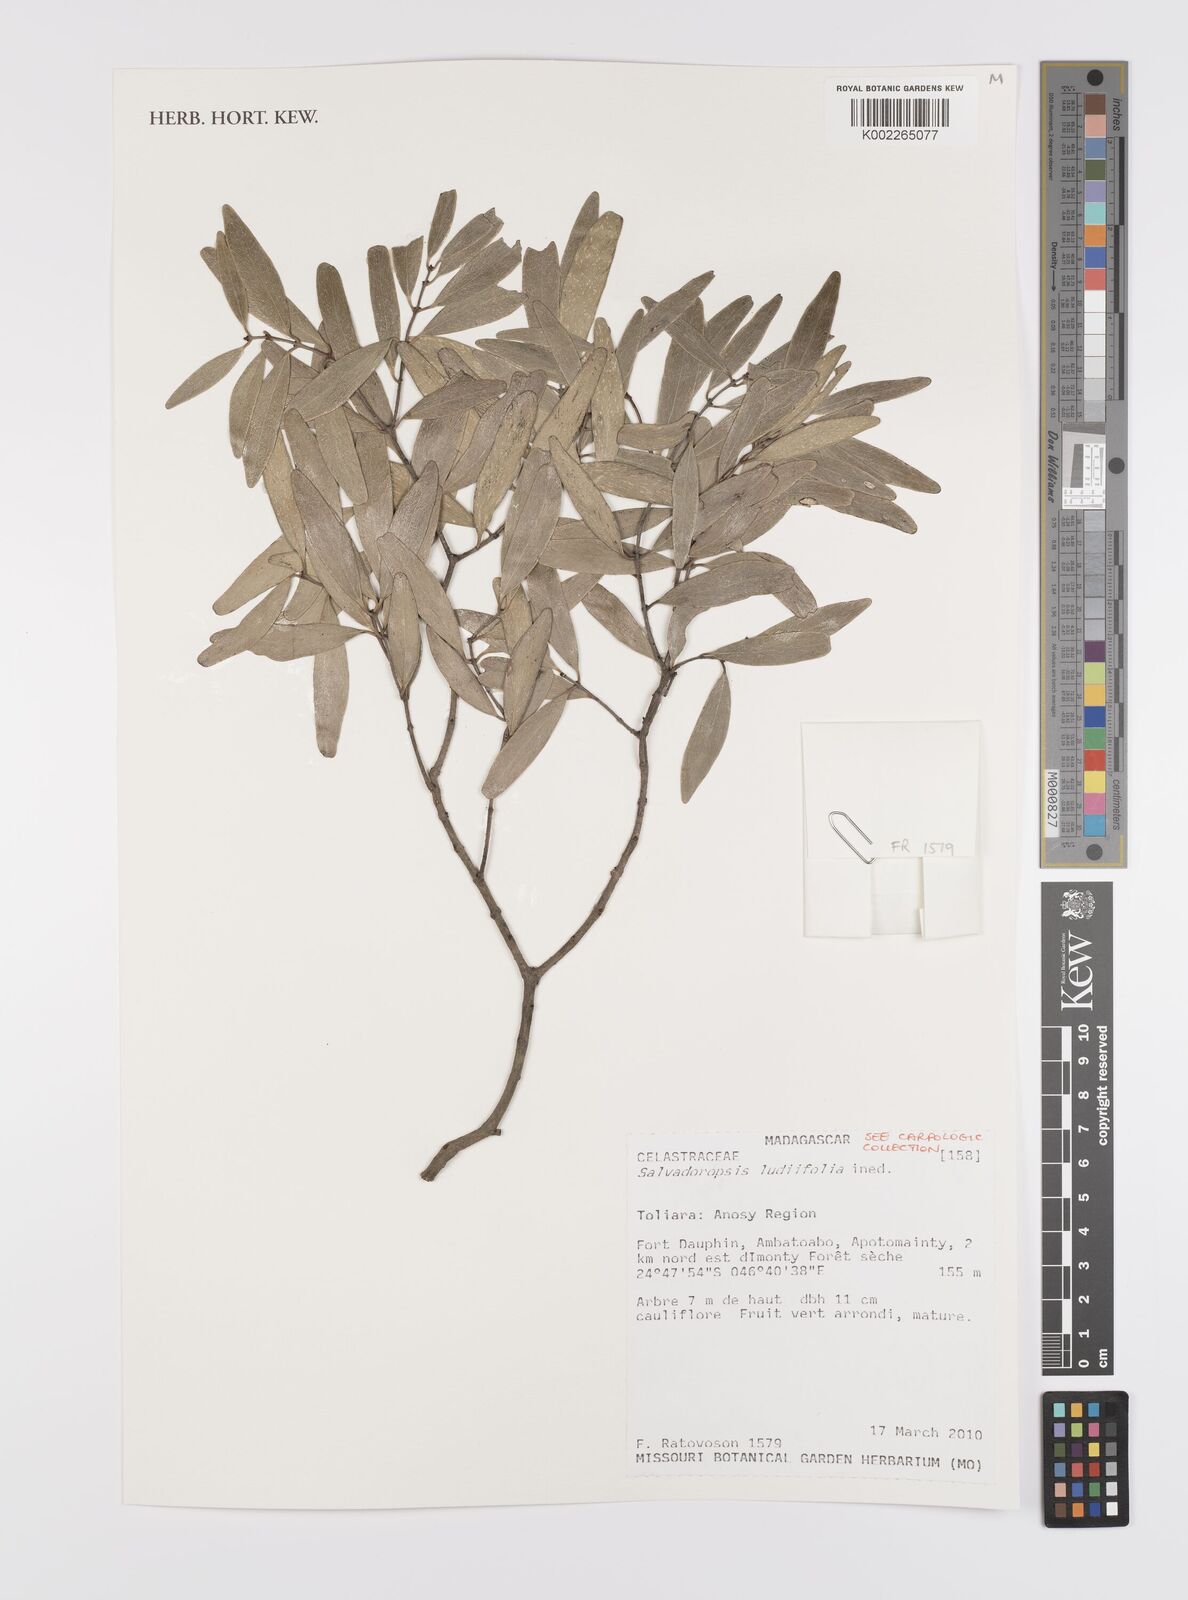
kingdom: Plantae
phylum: Tracheophyta
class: Magnoliopsida
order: Celastrales
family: Celastraceae
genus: Salvadoropsis
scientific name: Salvadoropsis
